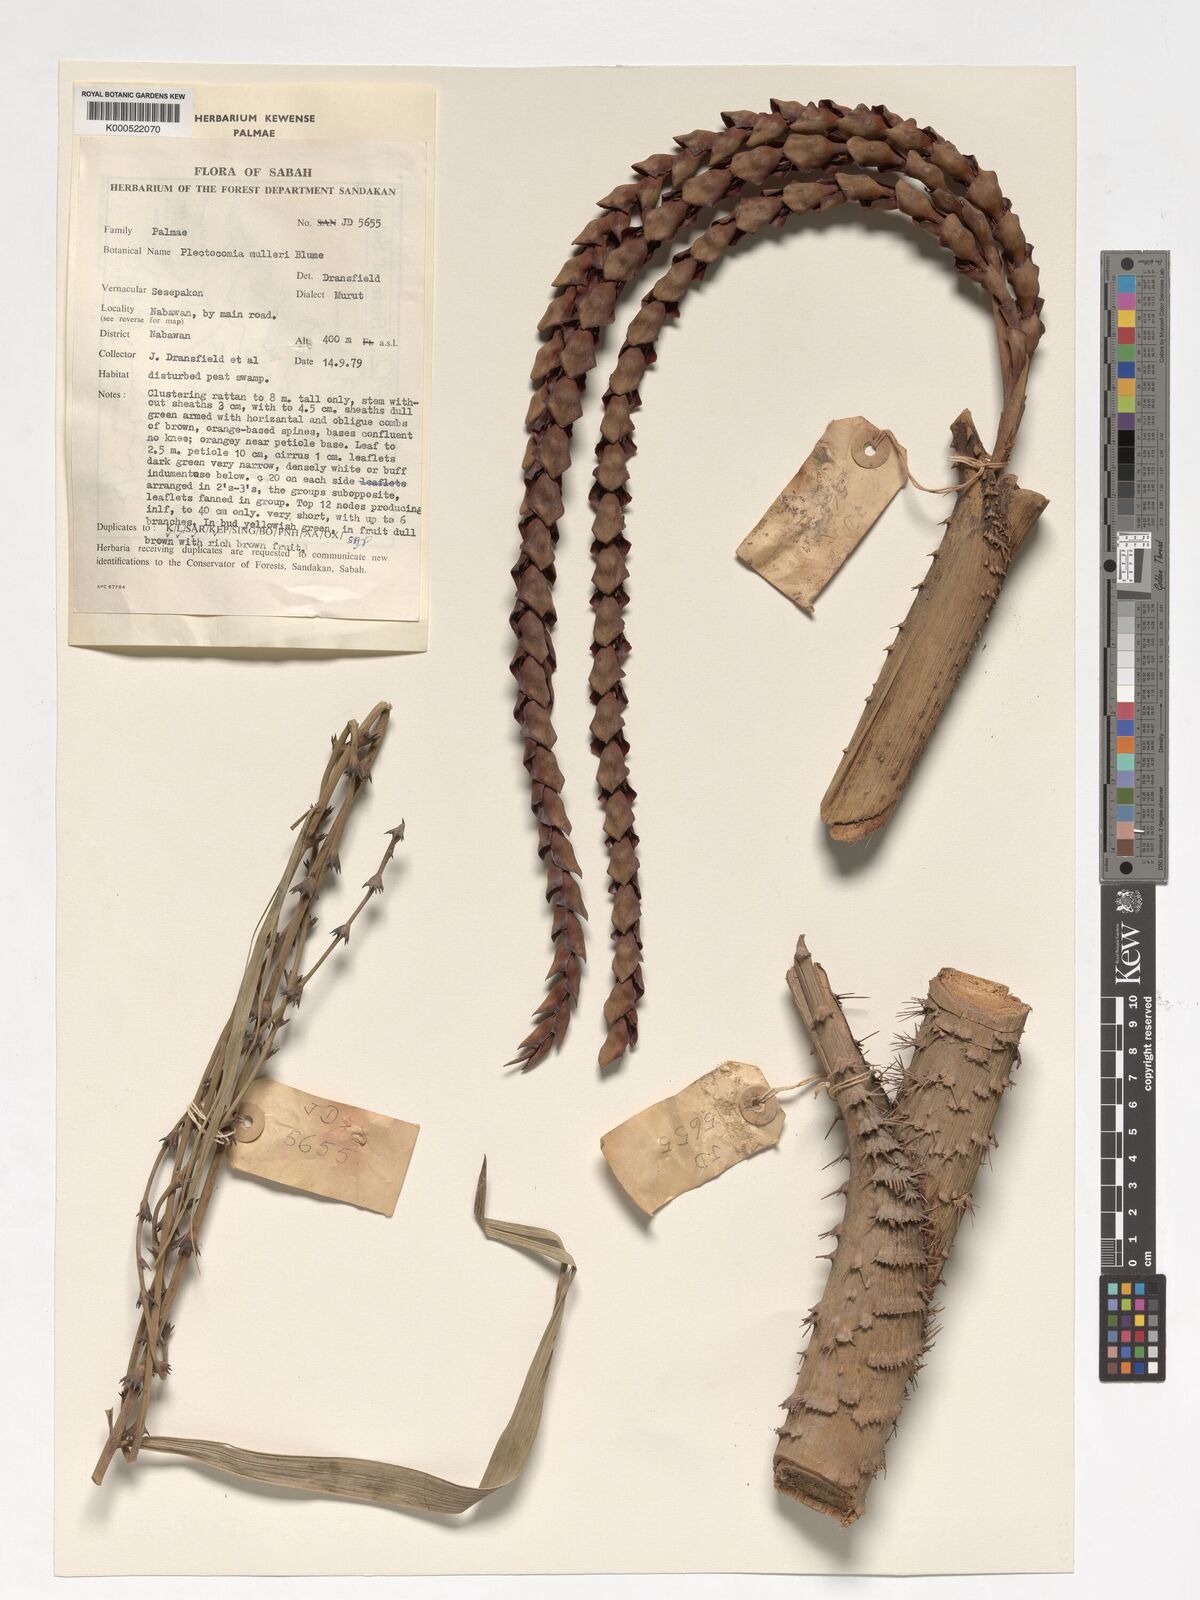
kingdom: Plantae
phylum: Tracheophyta
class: Liliopsida
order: Arecales
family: Arecaceae
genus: Plectocomia
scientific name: Plectocomia mulleri
